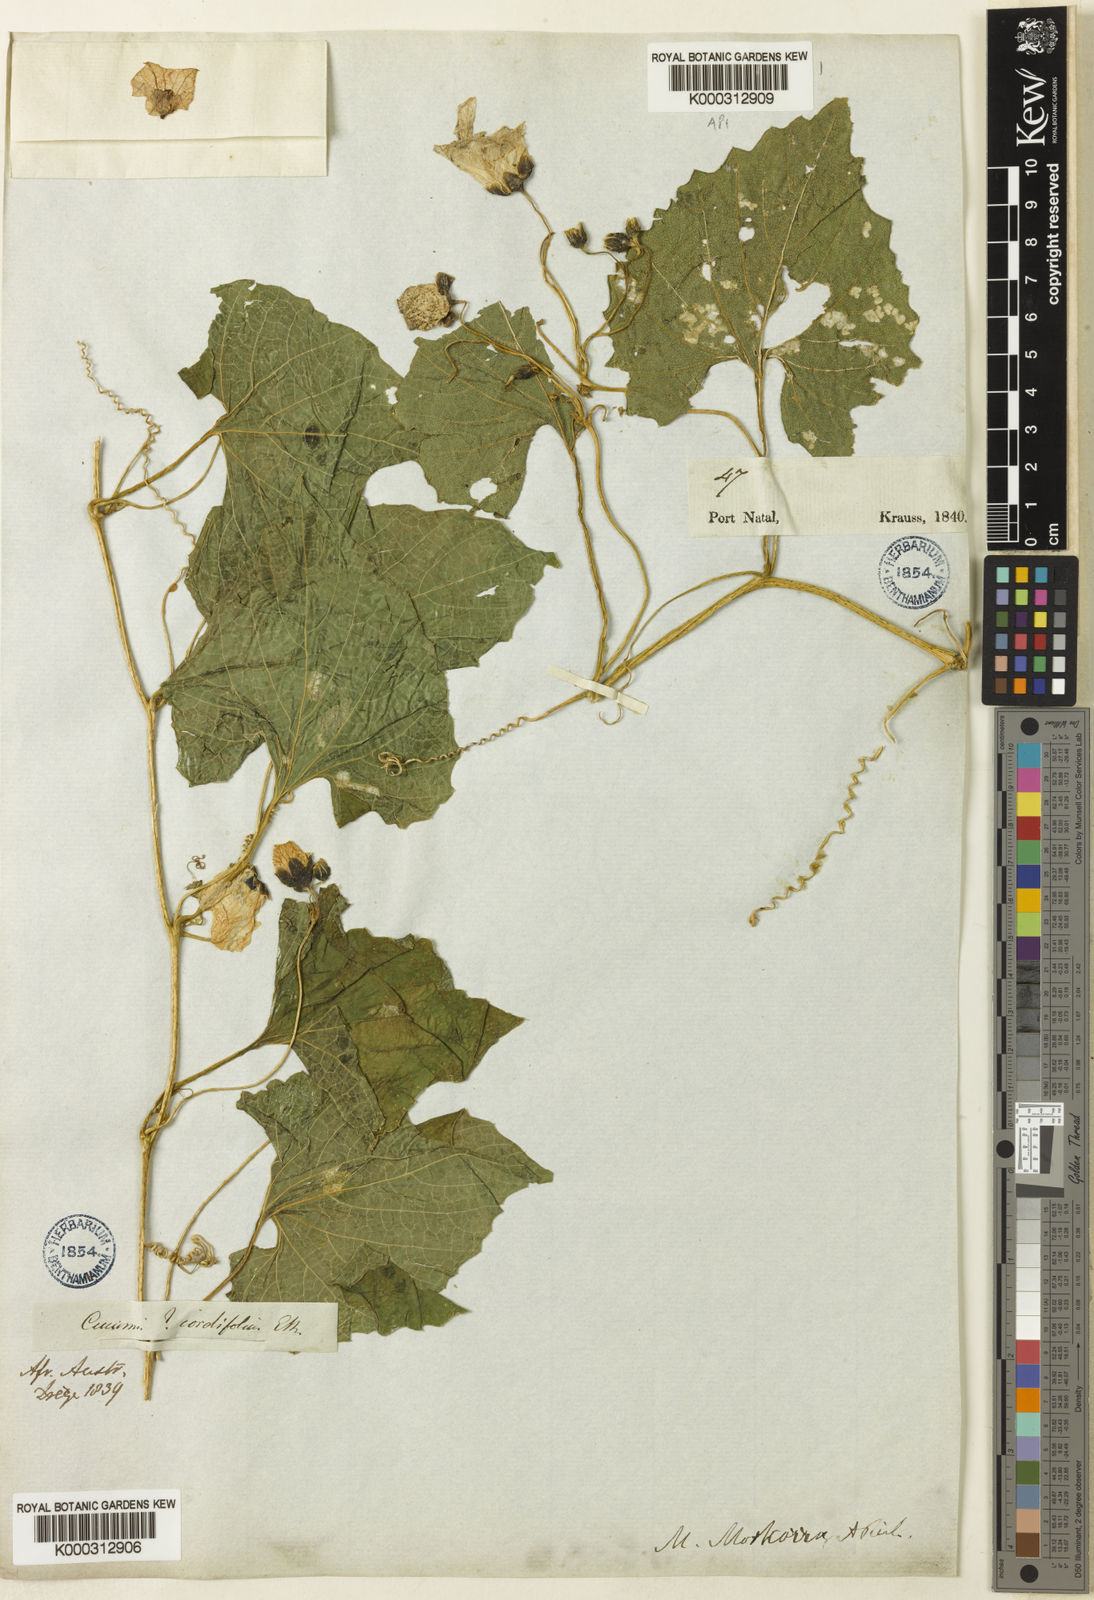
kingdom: Plantae
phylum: Tracheophyta
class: Magnoliopsida
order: Cucurbitales
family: Cucurbitaceae
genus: Momordica
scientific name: Momordica foetida
